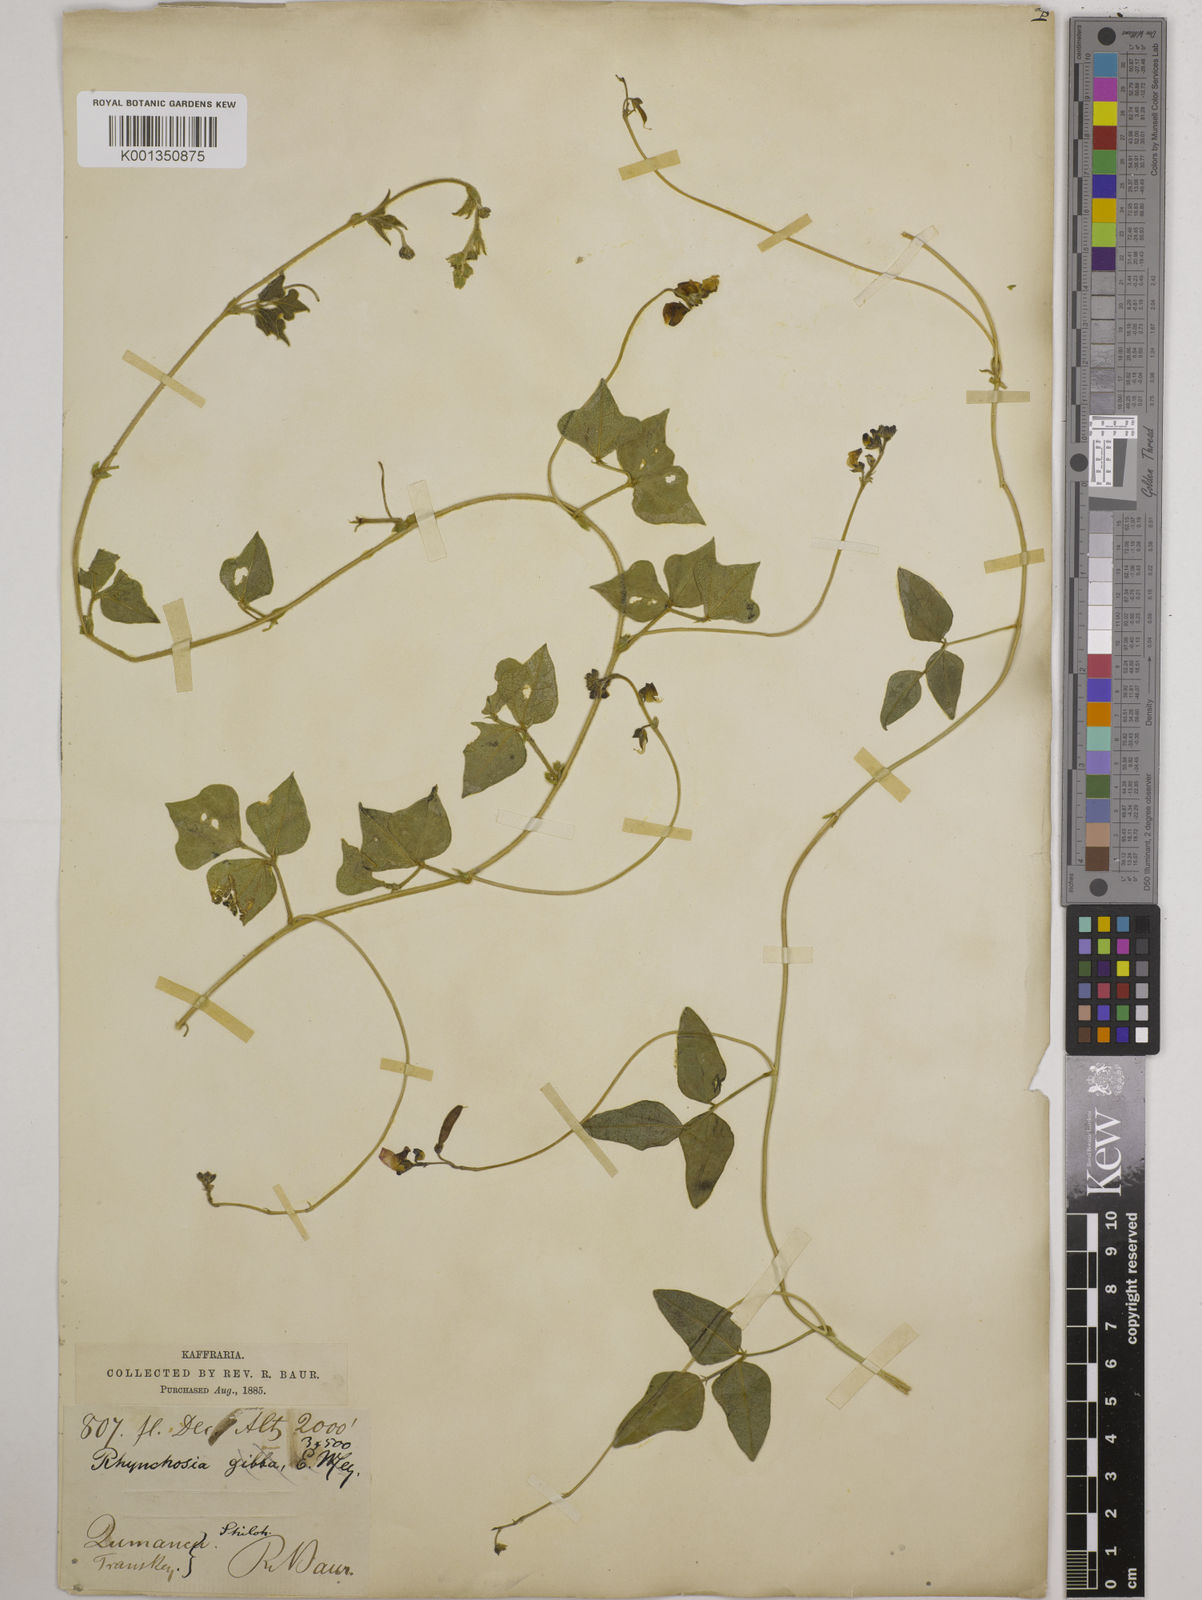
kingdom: Plantae
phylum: Tracheophyta
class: Magnoliopsida
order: Fabales
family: Fabaceae
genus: Dolichos
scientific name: Dolichos falciformis
